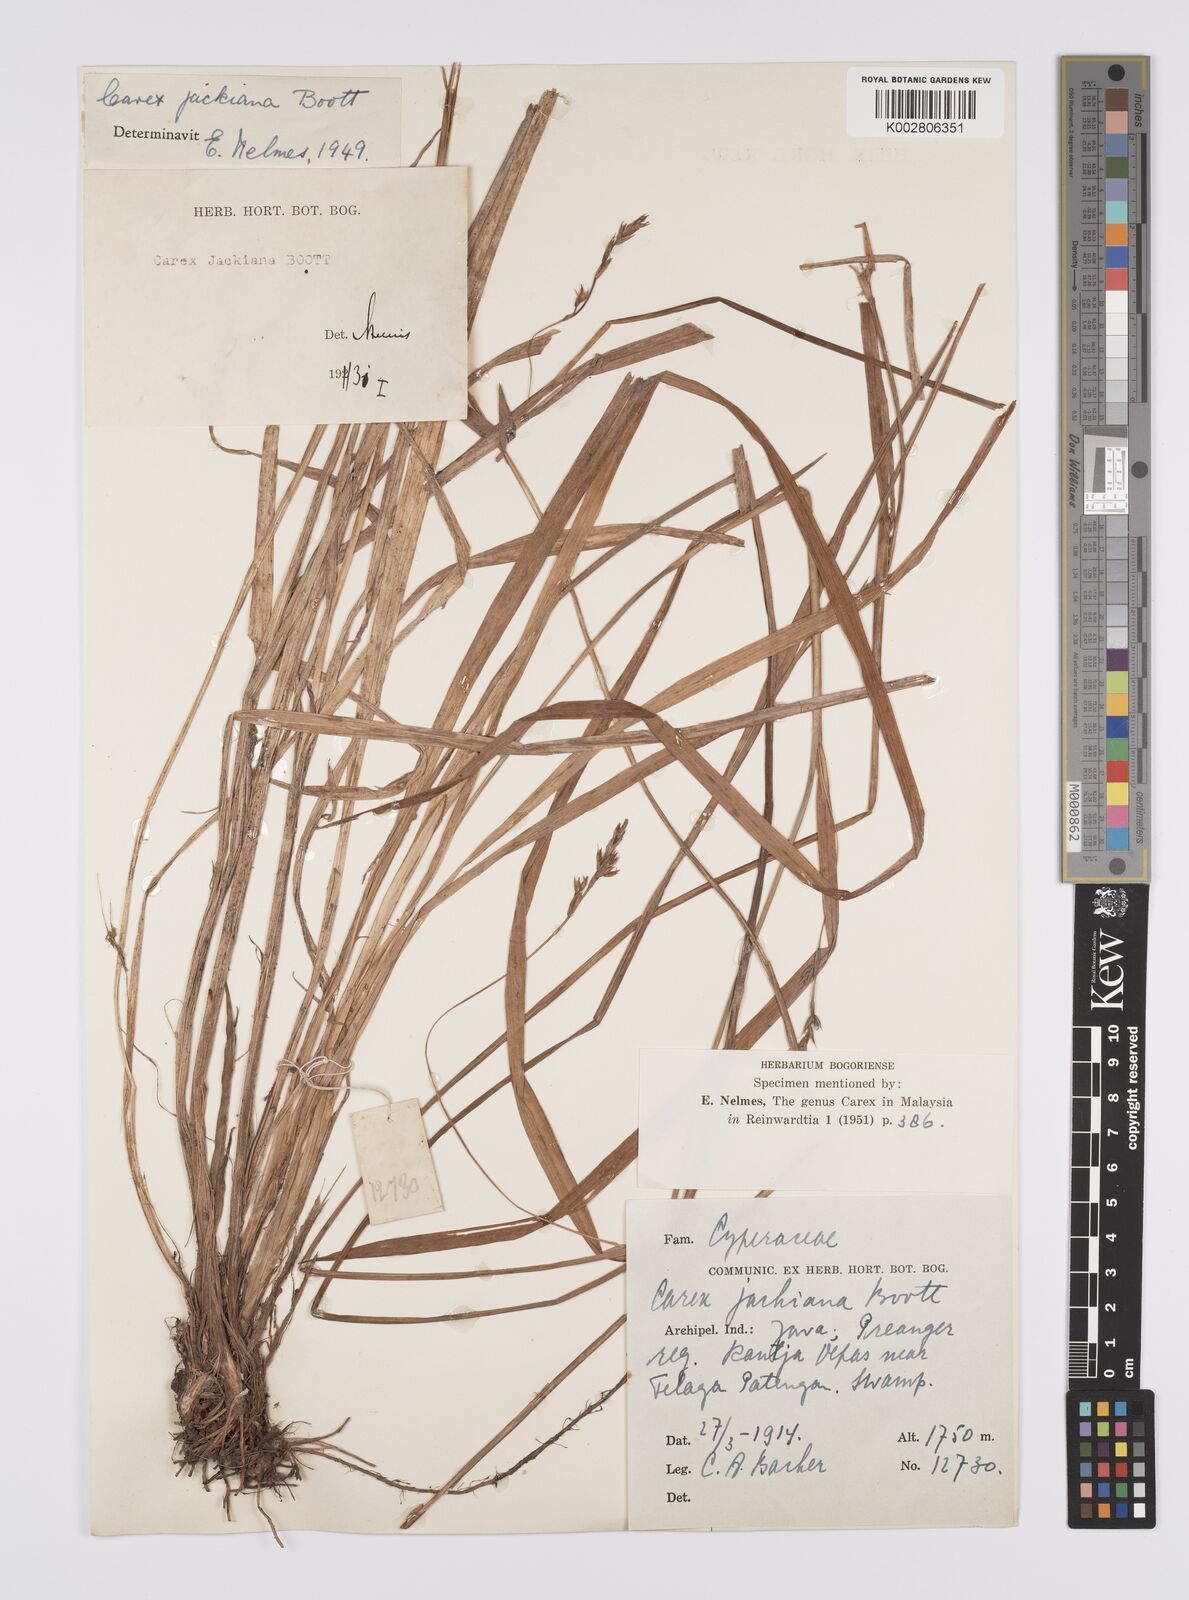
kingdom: Plantae
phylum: Tracheophyta
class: Liliopsida
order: Poales
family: Cyperaceae
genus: Carex
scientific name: Carex jackiana
